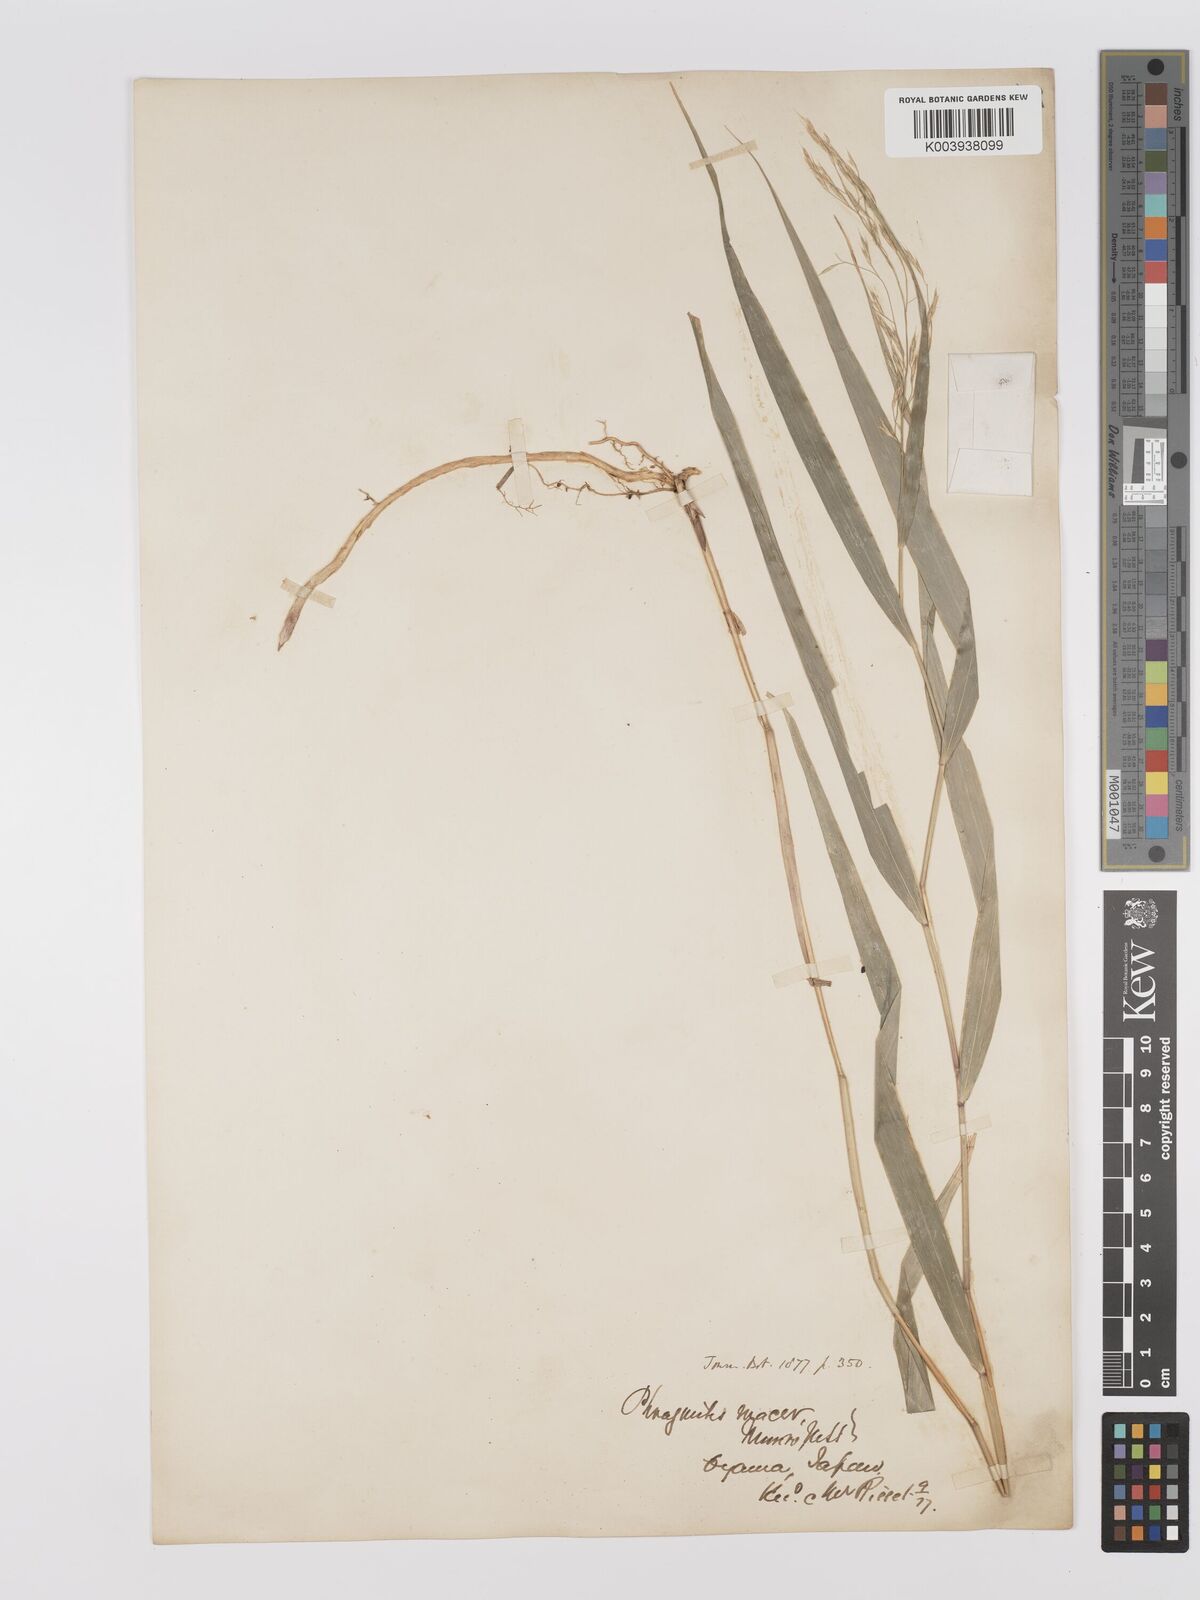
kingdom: Plantae
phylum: Tracheophyta
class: Liliopsida
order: Poales
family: Poaceae
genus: Hakonechloa
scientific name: Hakonechloa macra
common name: Hakone grass
